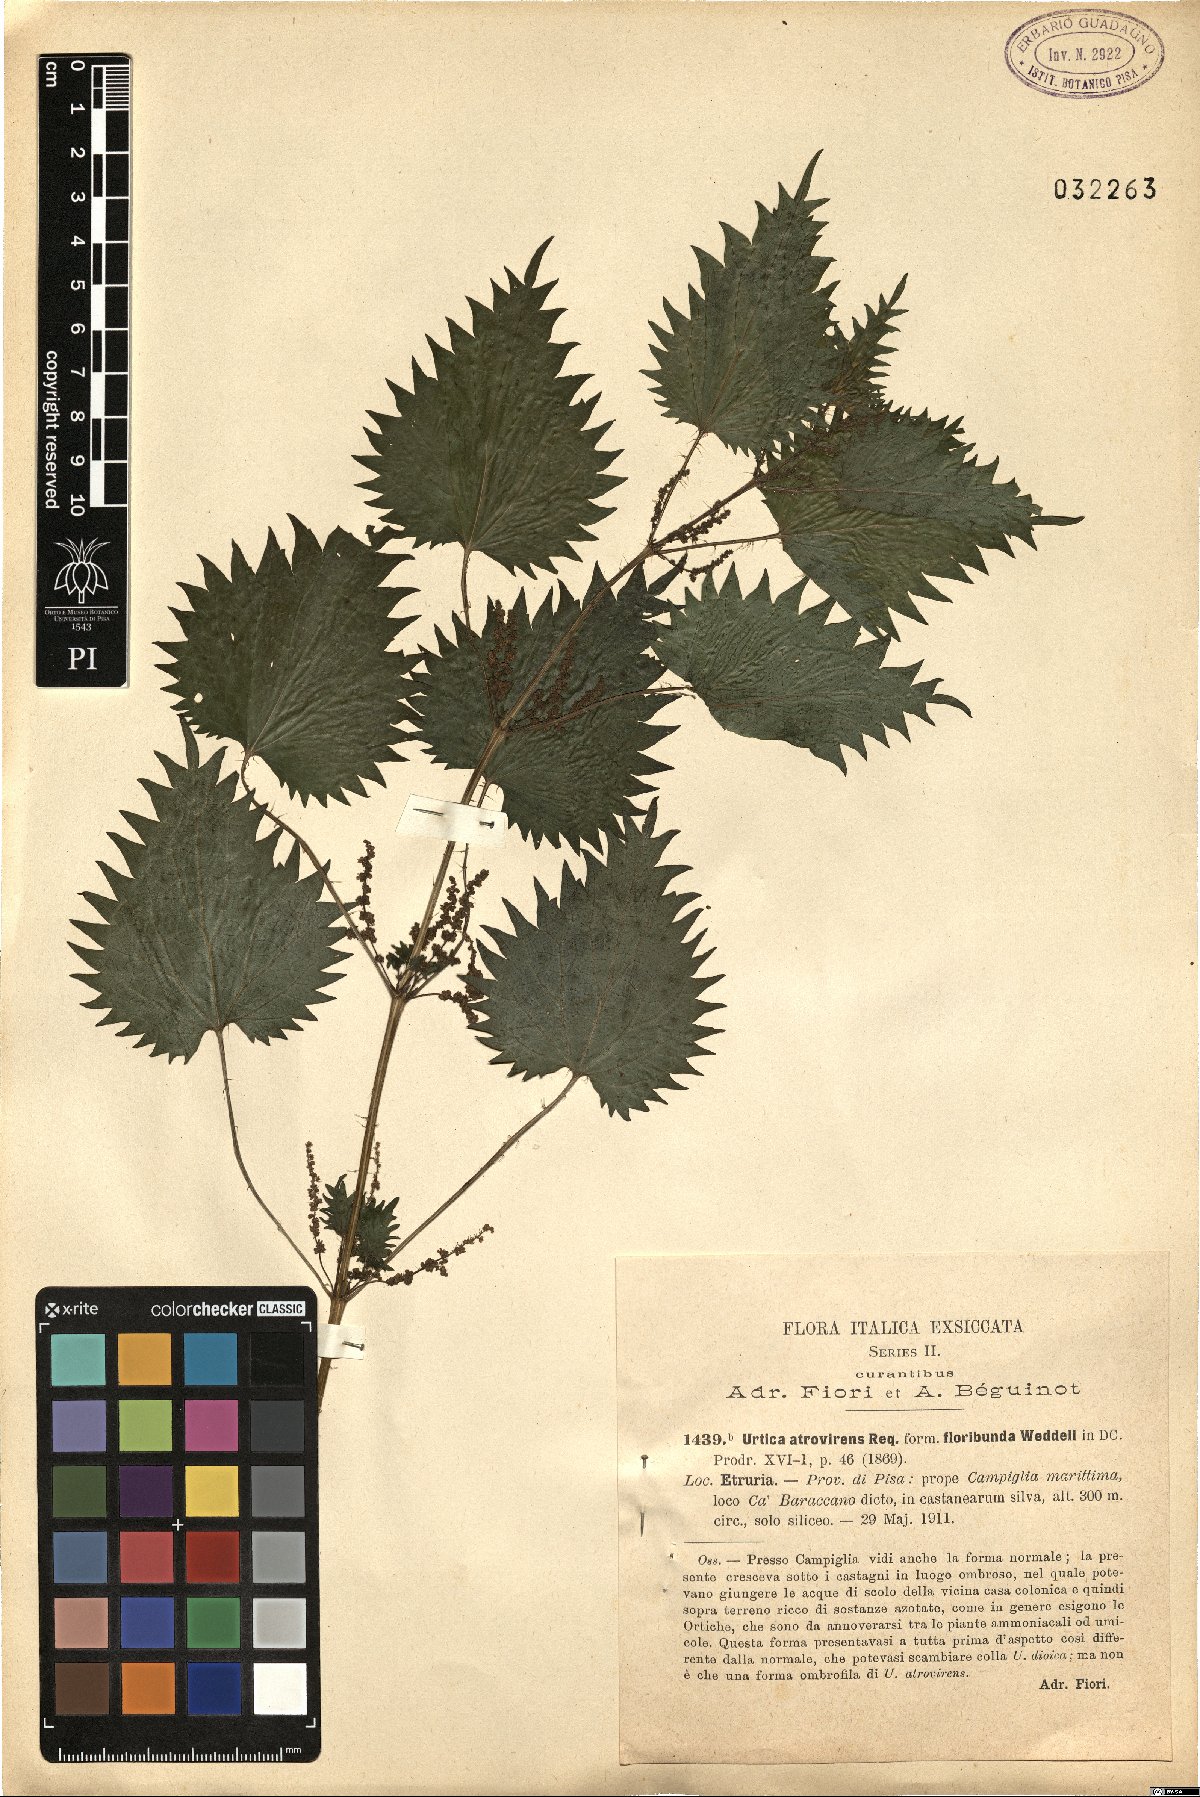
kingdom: Plantae
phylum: Tracheophyta
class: Magnoliopsida
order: Rosales
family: Urticaceae
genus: Urtica
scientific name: Urtica atrovirens
